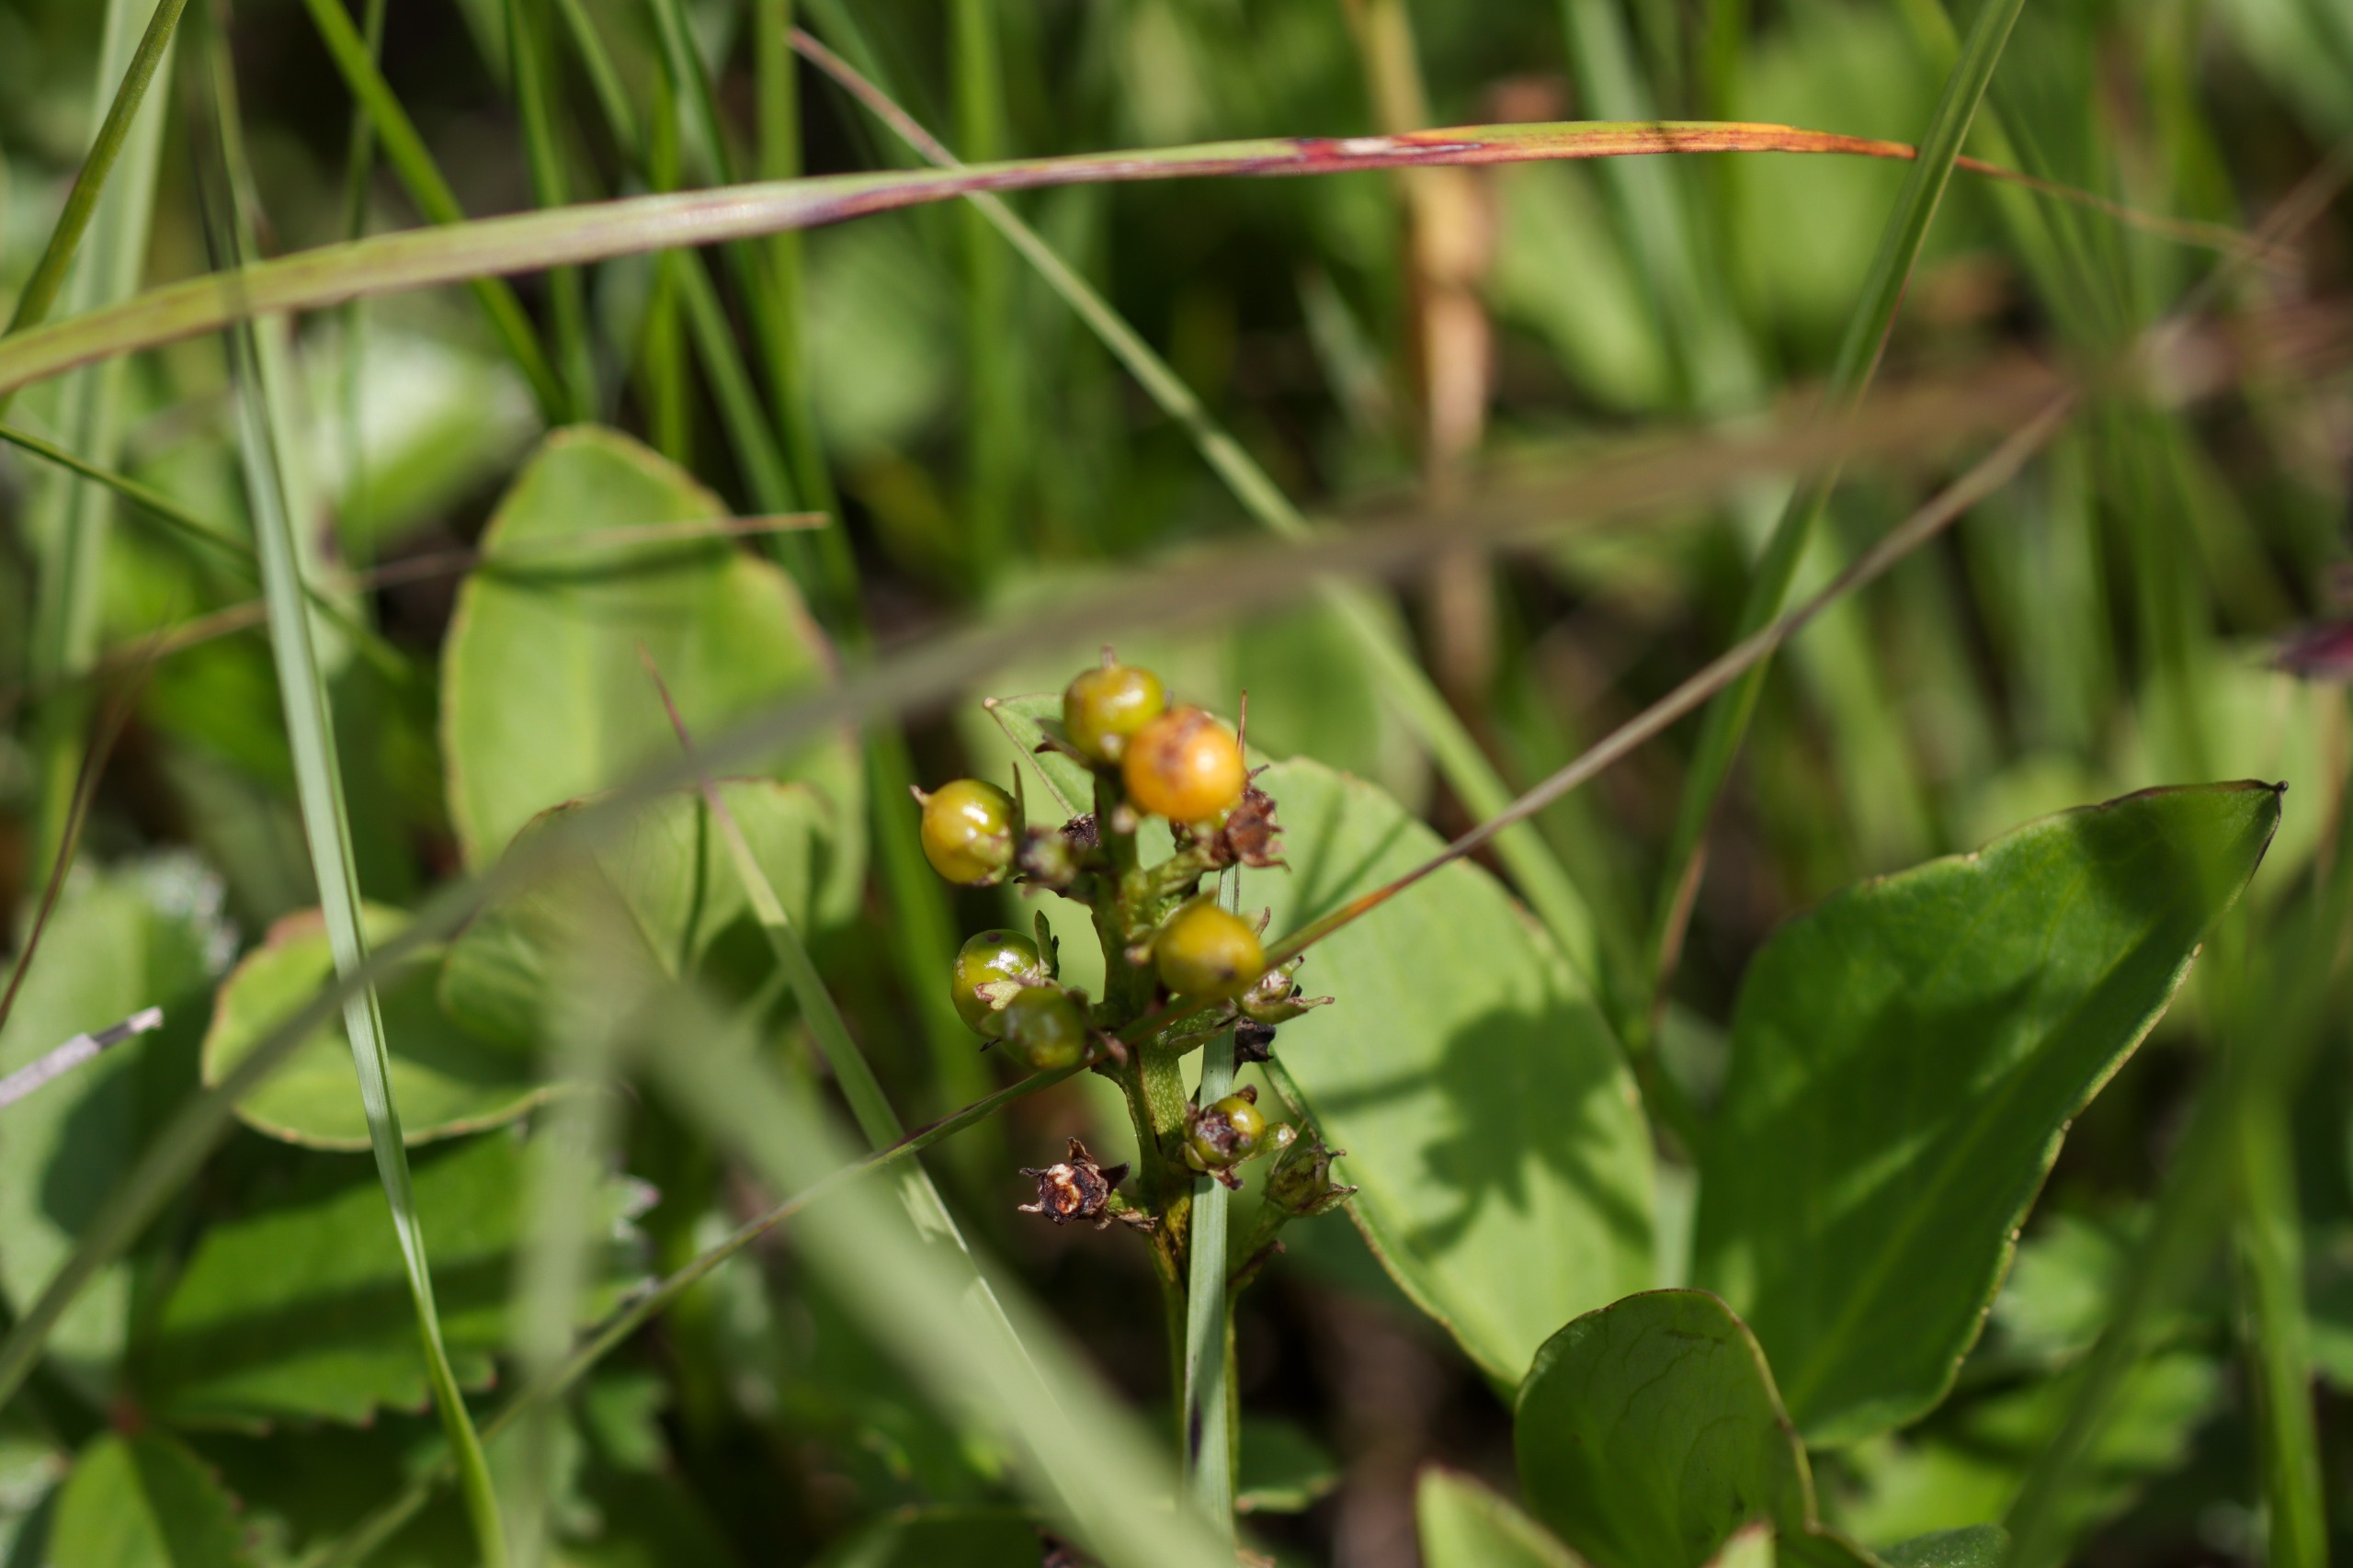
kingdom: Plantae
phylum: Tracheophyta
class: Magnoliopsida
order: Asterales
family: Menyanthaceae
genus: Menyanthes
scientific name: Menyanthes trifoliata
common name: Bukkeblad
